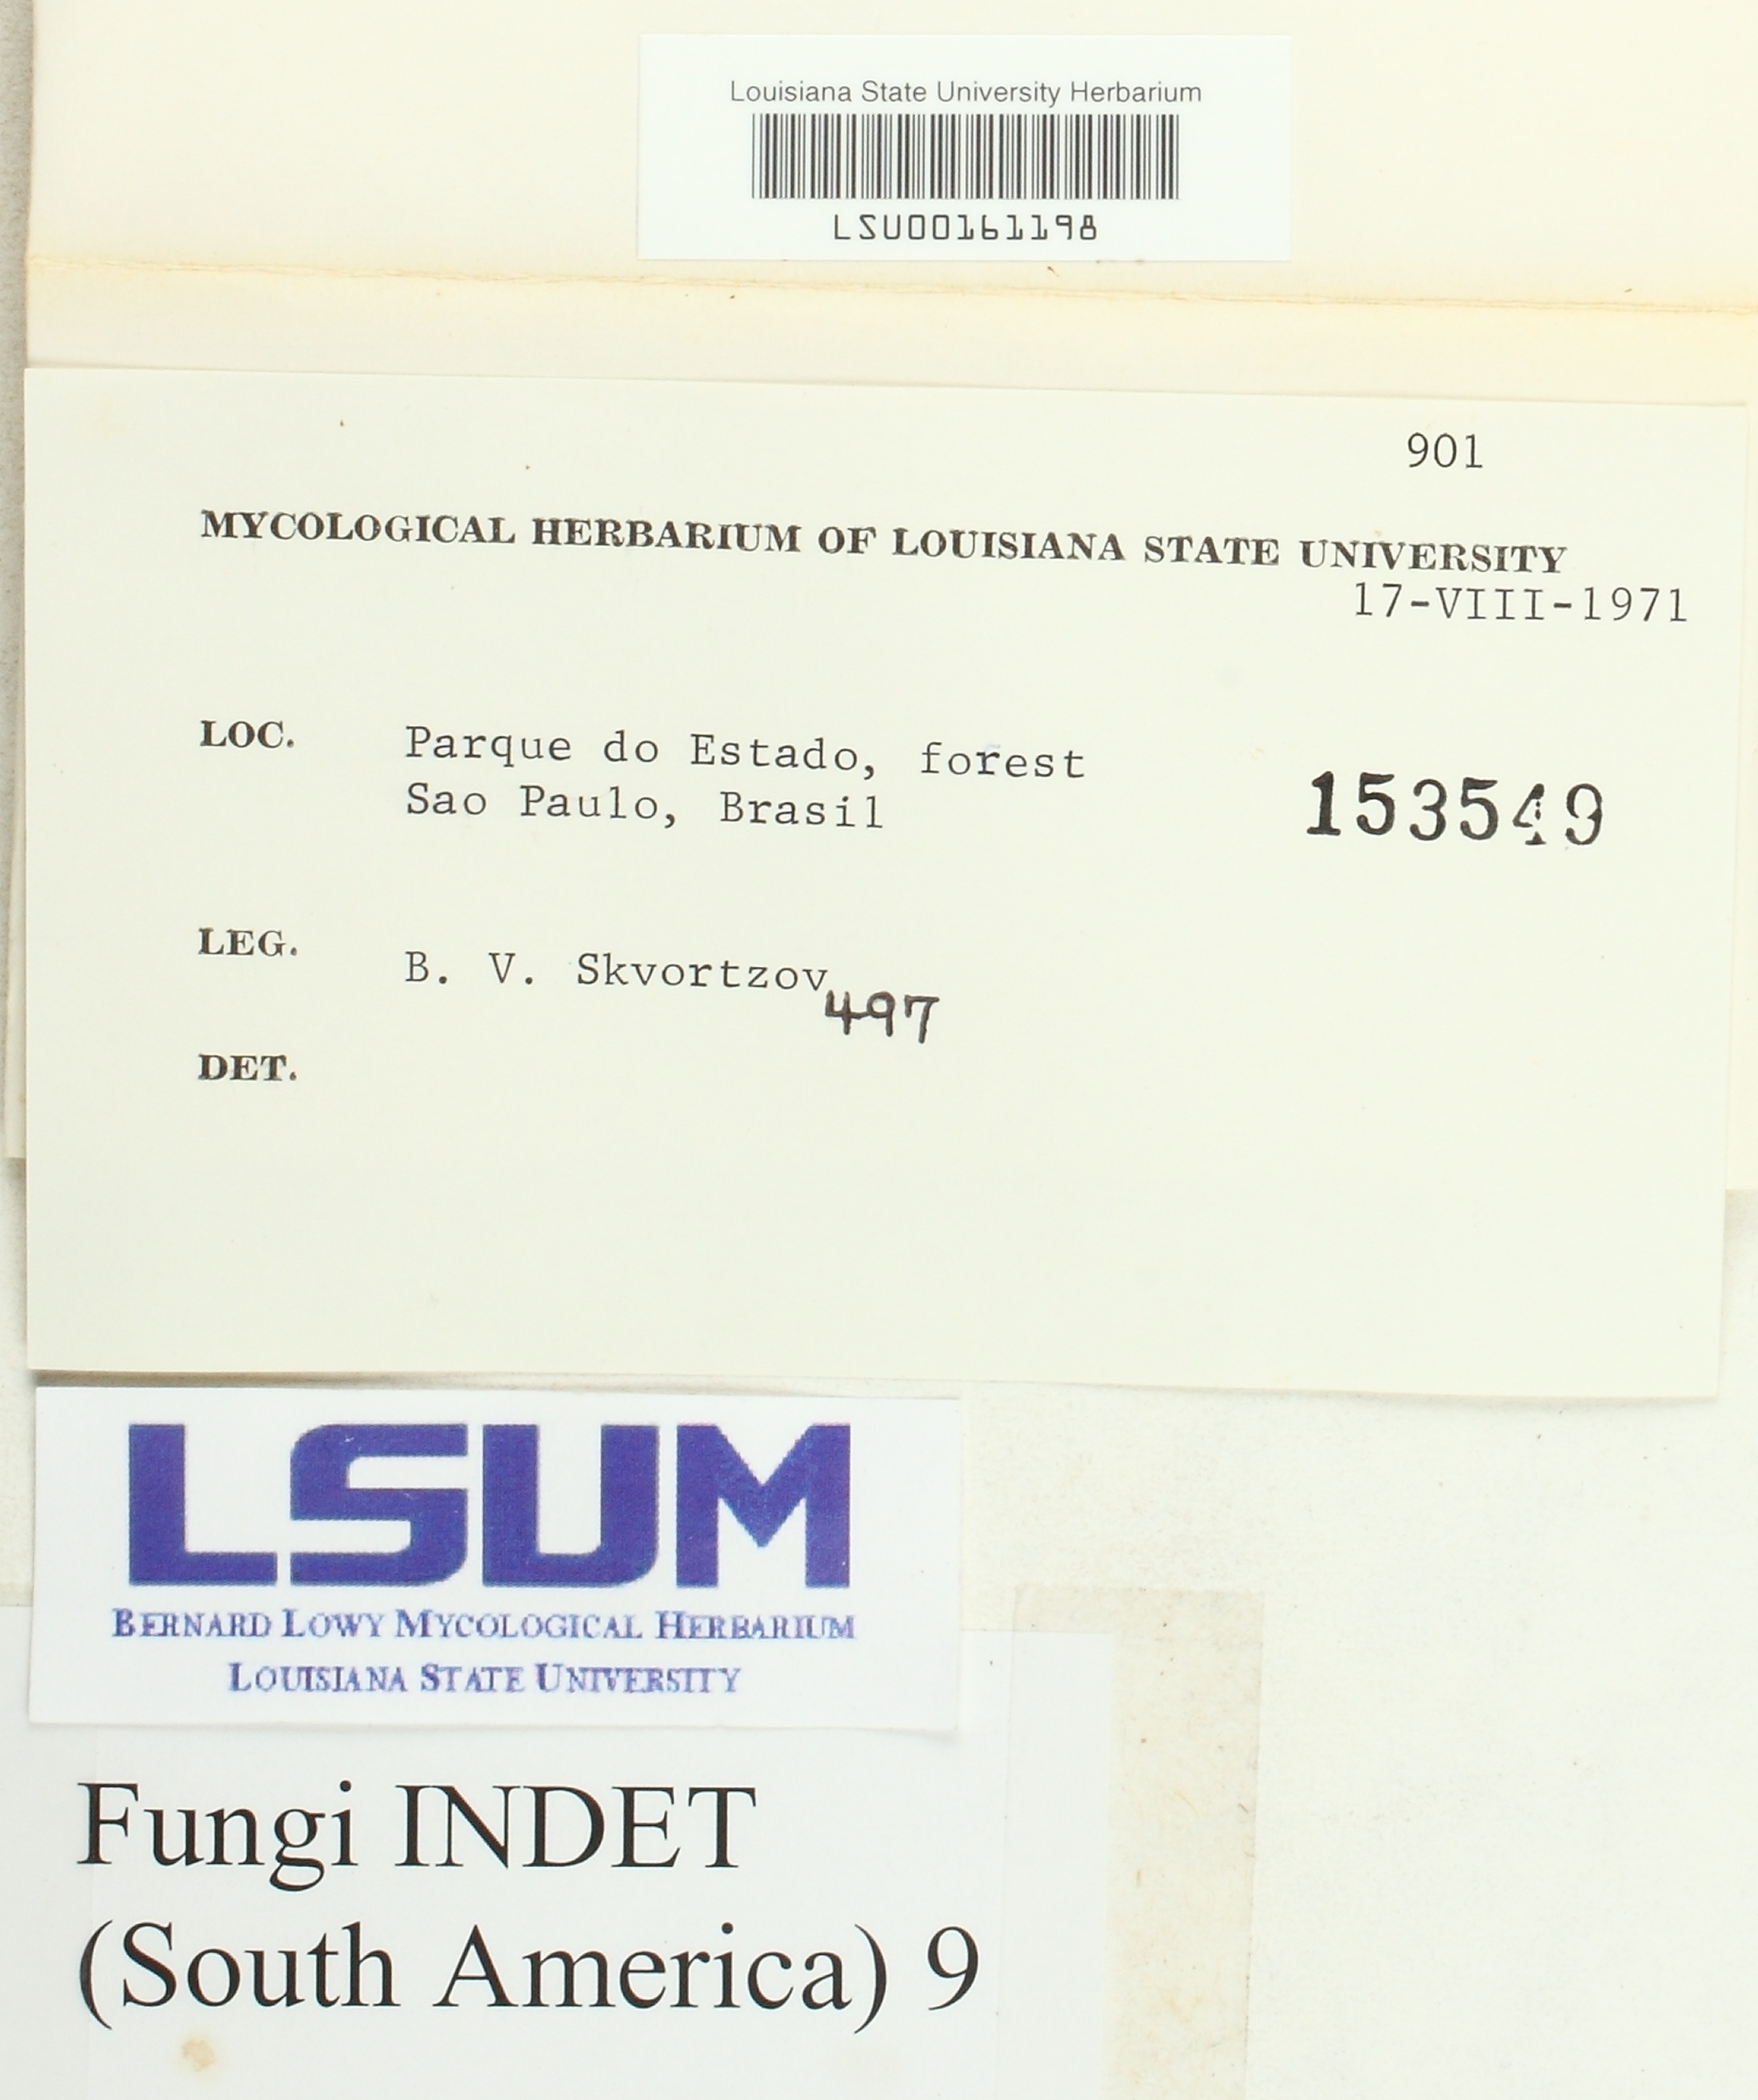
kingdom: Fungi
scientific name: Fungi
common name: Fungi
